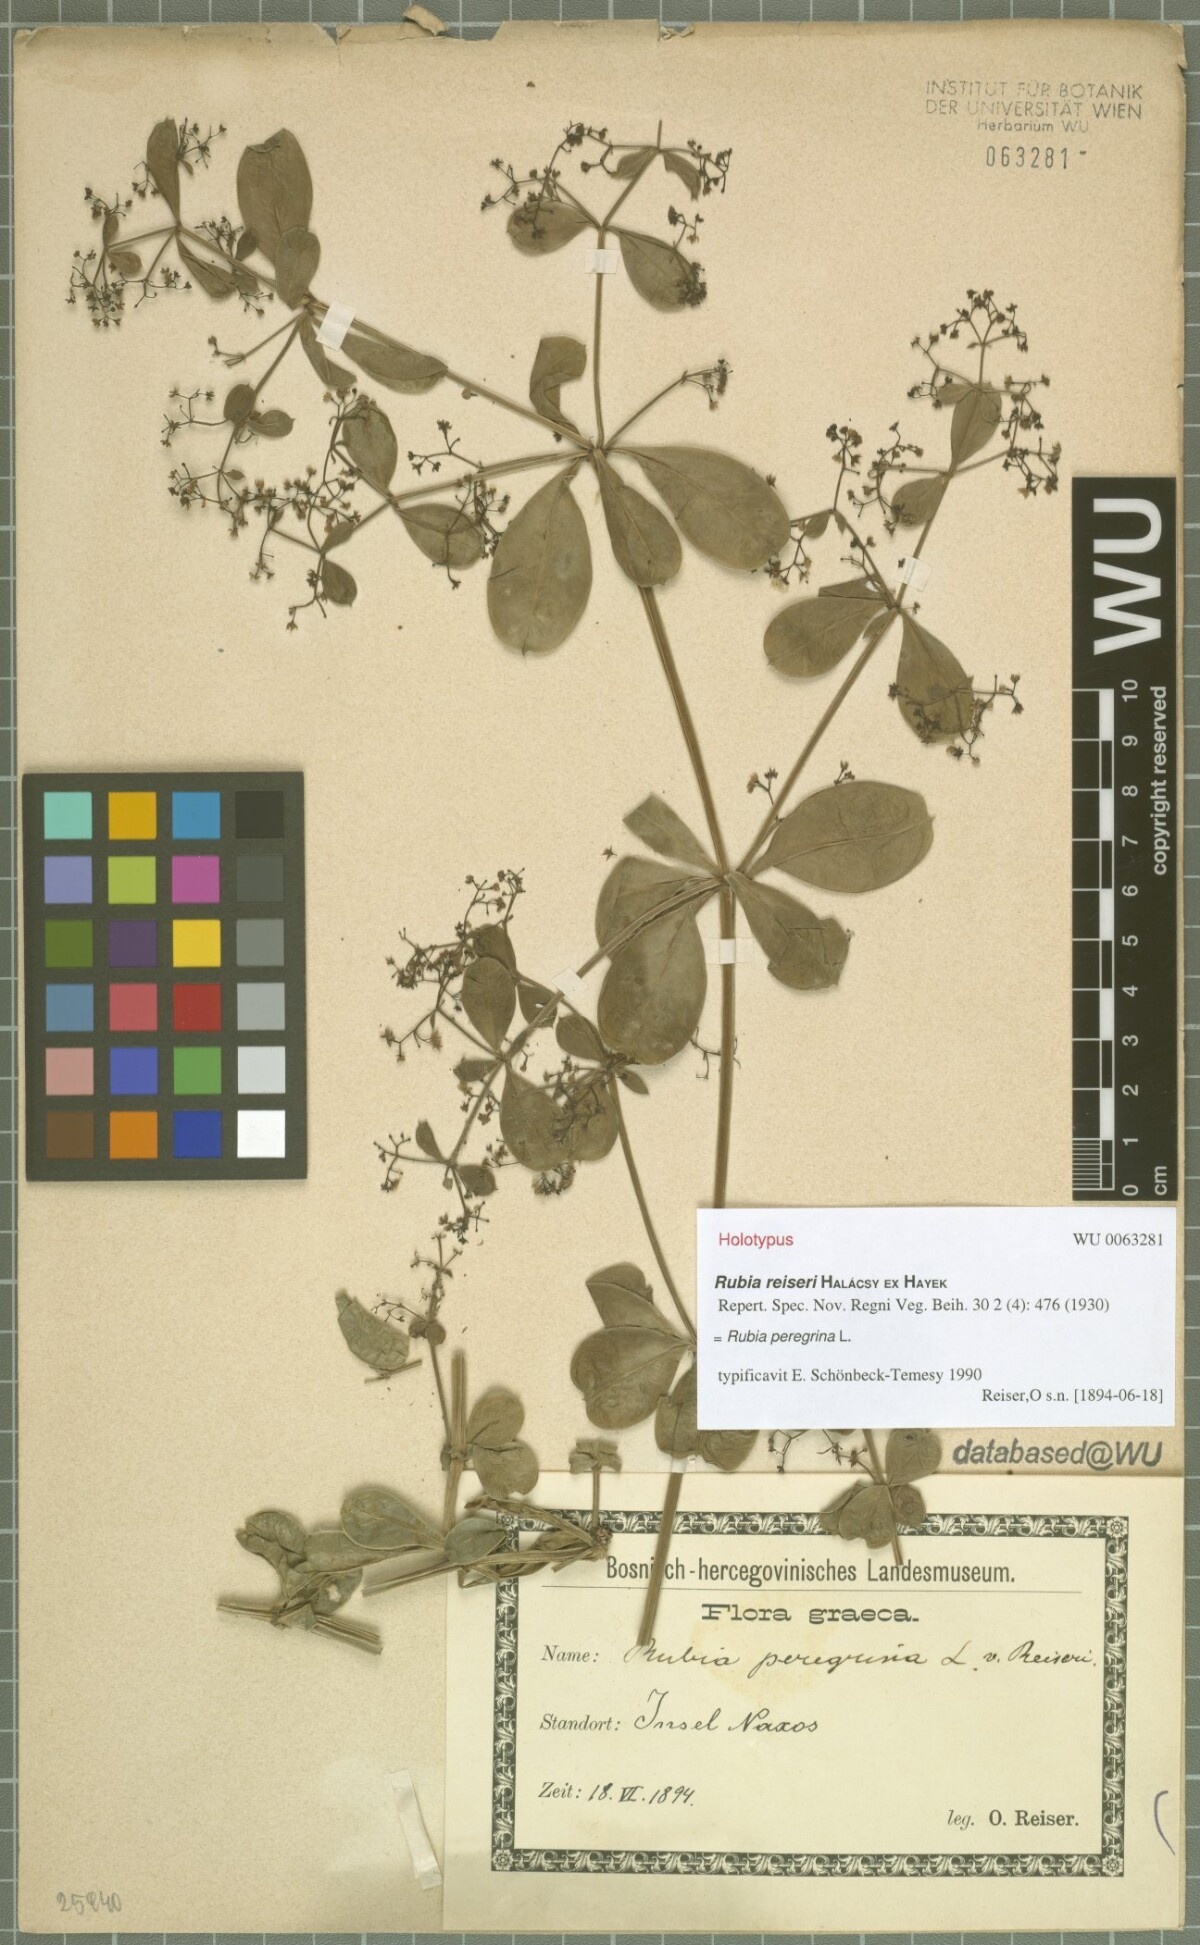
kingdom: Plantae
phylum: Tracheophyta
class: Magnoliopsida
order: Gentianales
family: Rubiaceae
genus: Rubia
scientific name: Rubia peregrina
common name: Wild madder
